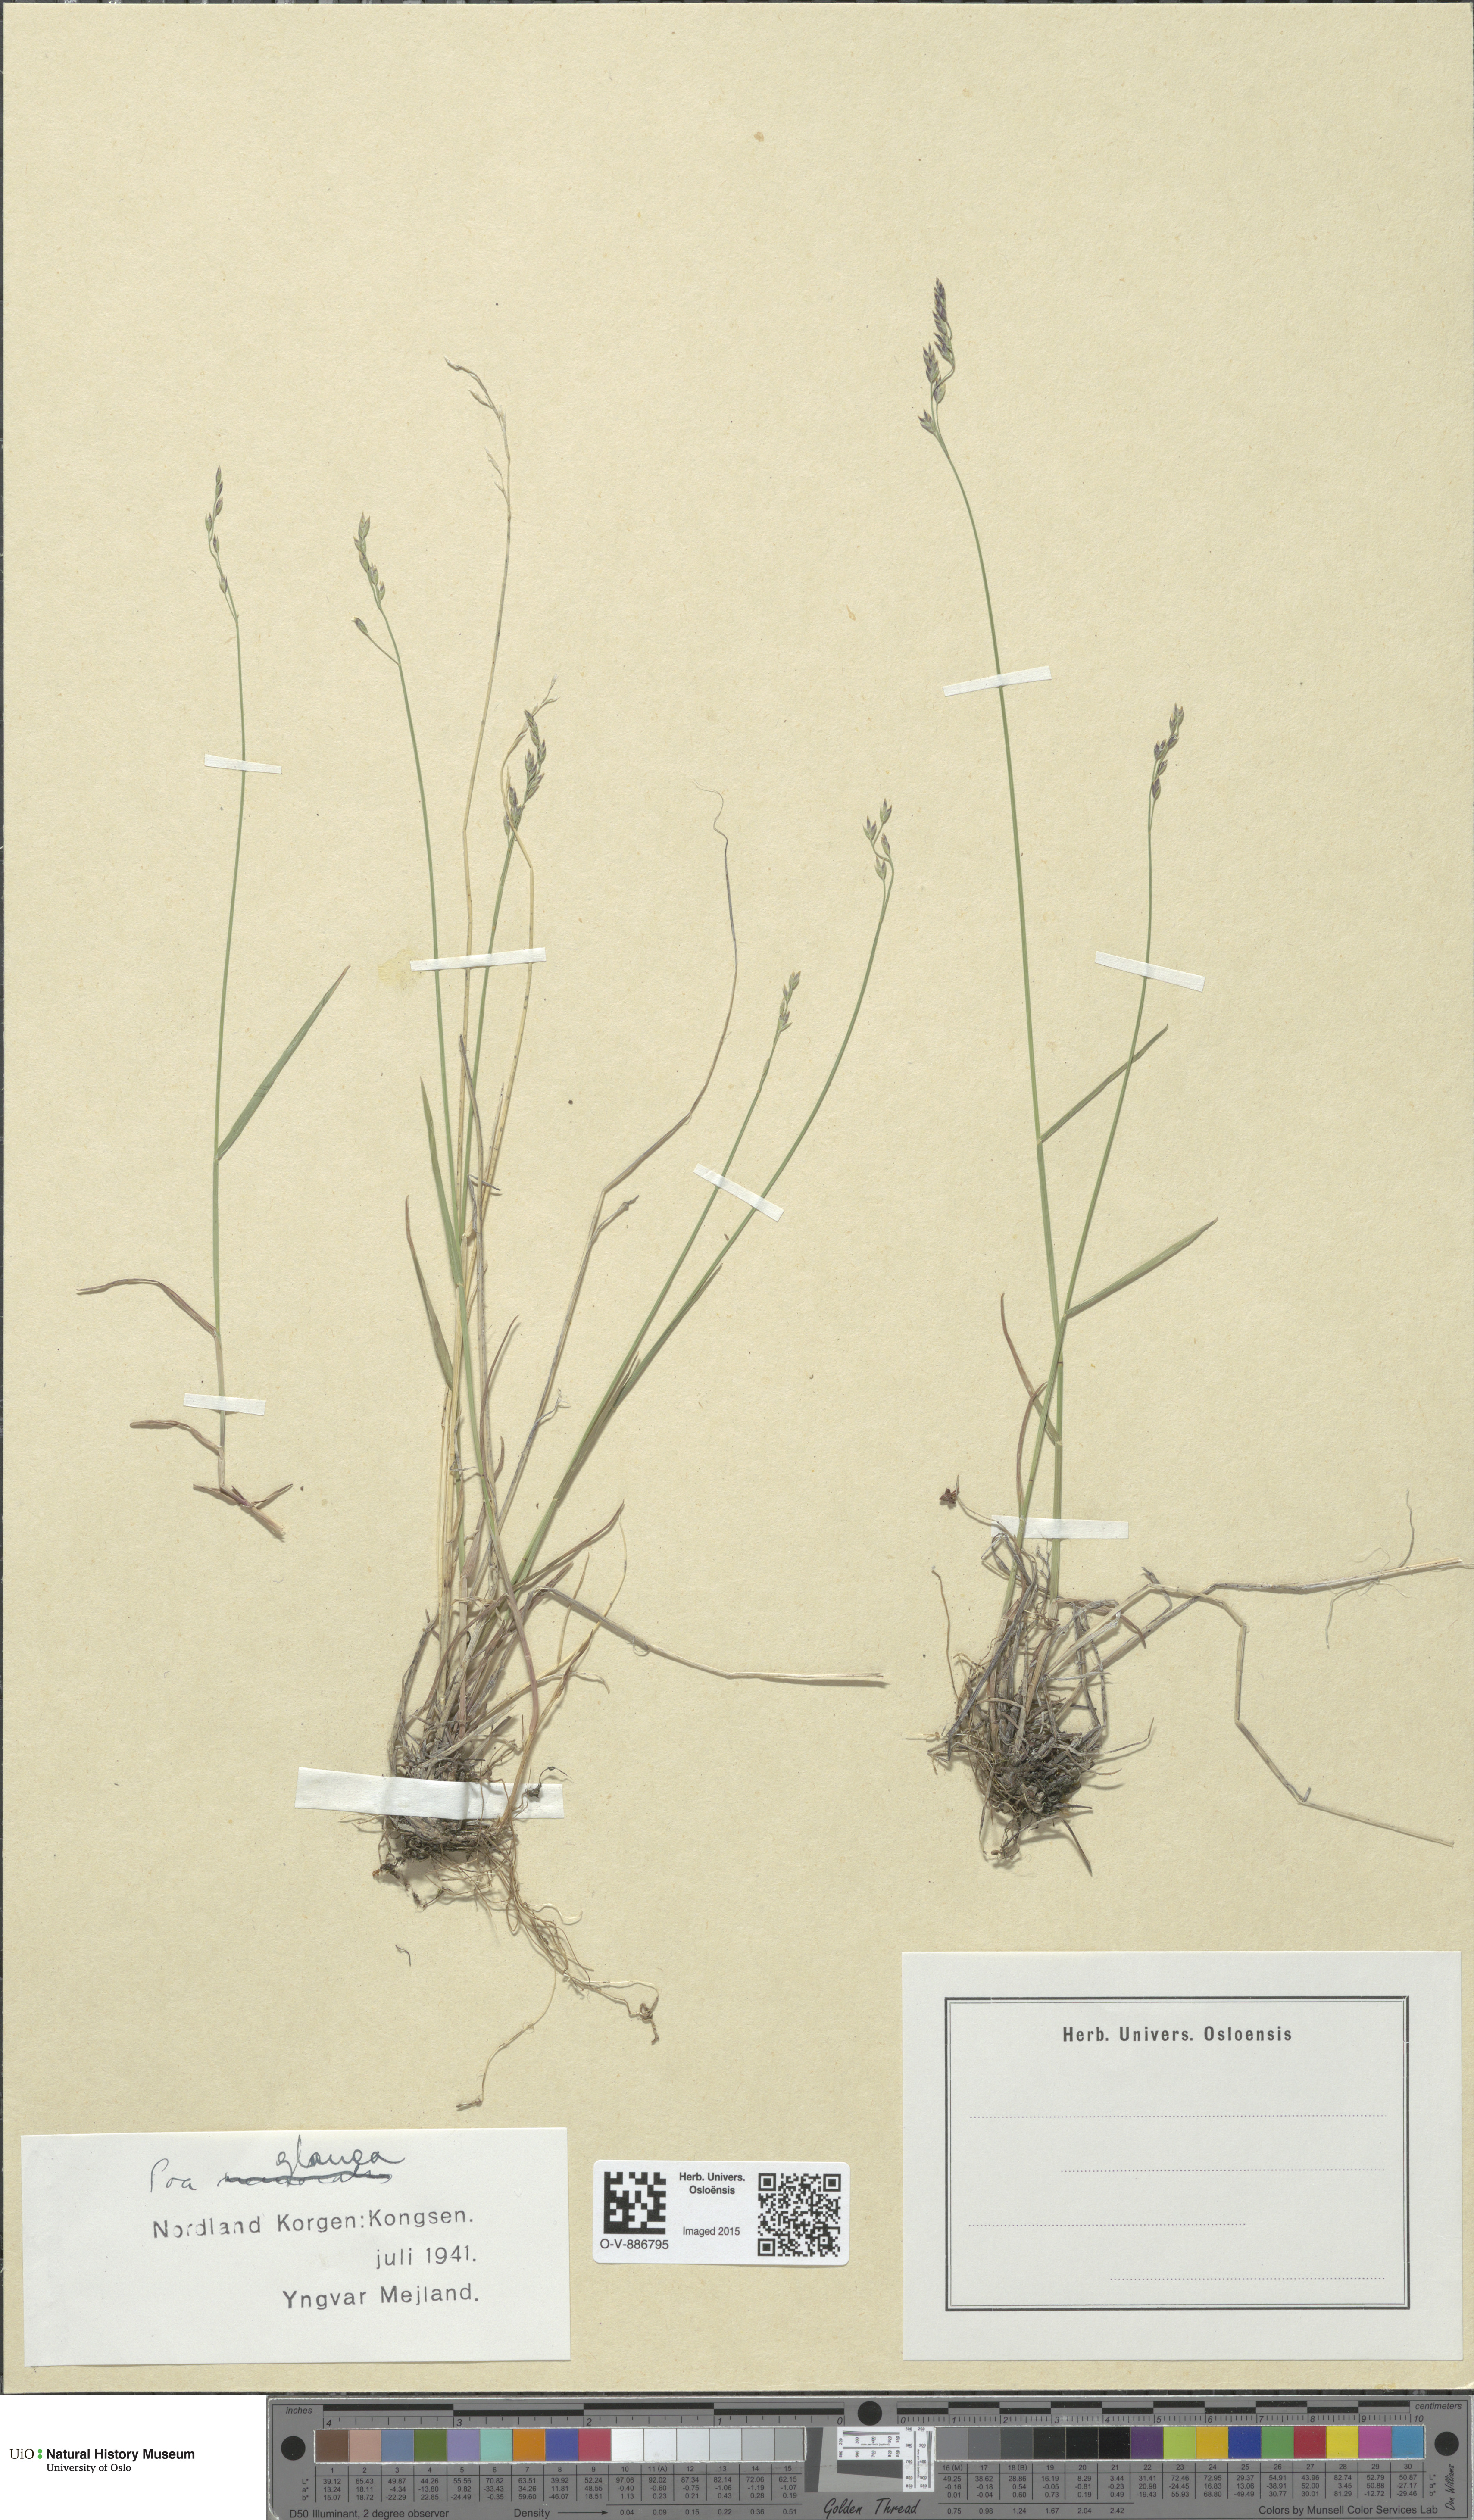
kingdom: Plantae
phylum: Tracheophyta
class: Liliopsida
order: Poales
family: Poaceae
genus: Poa
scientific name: Poa glauca
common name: Glaucous bluegrass
